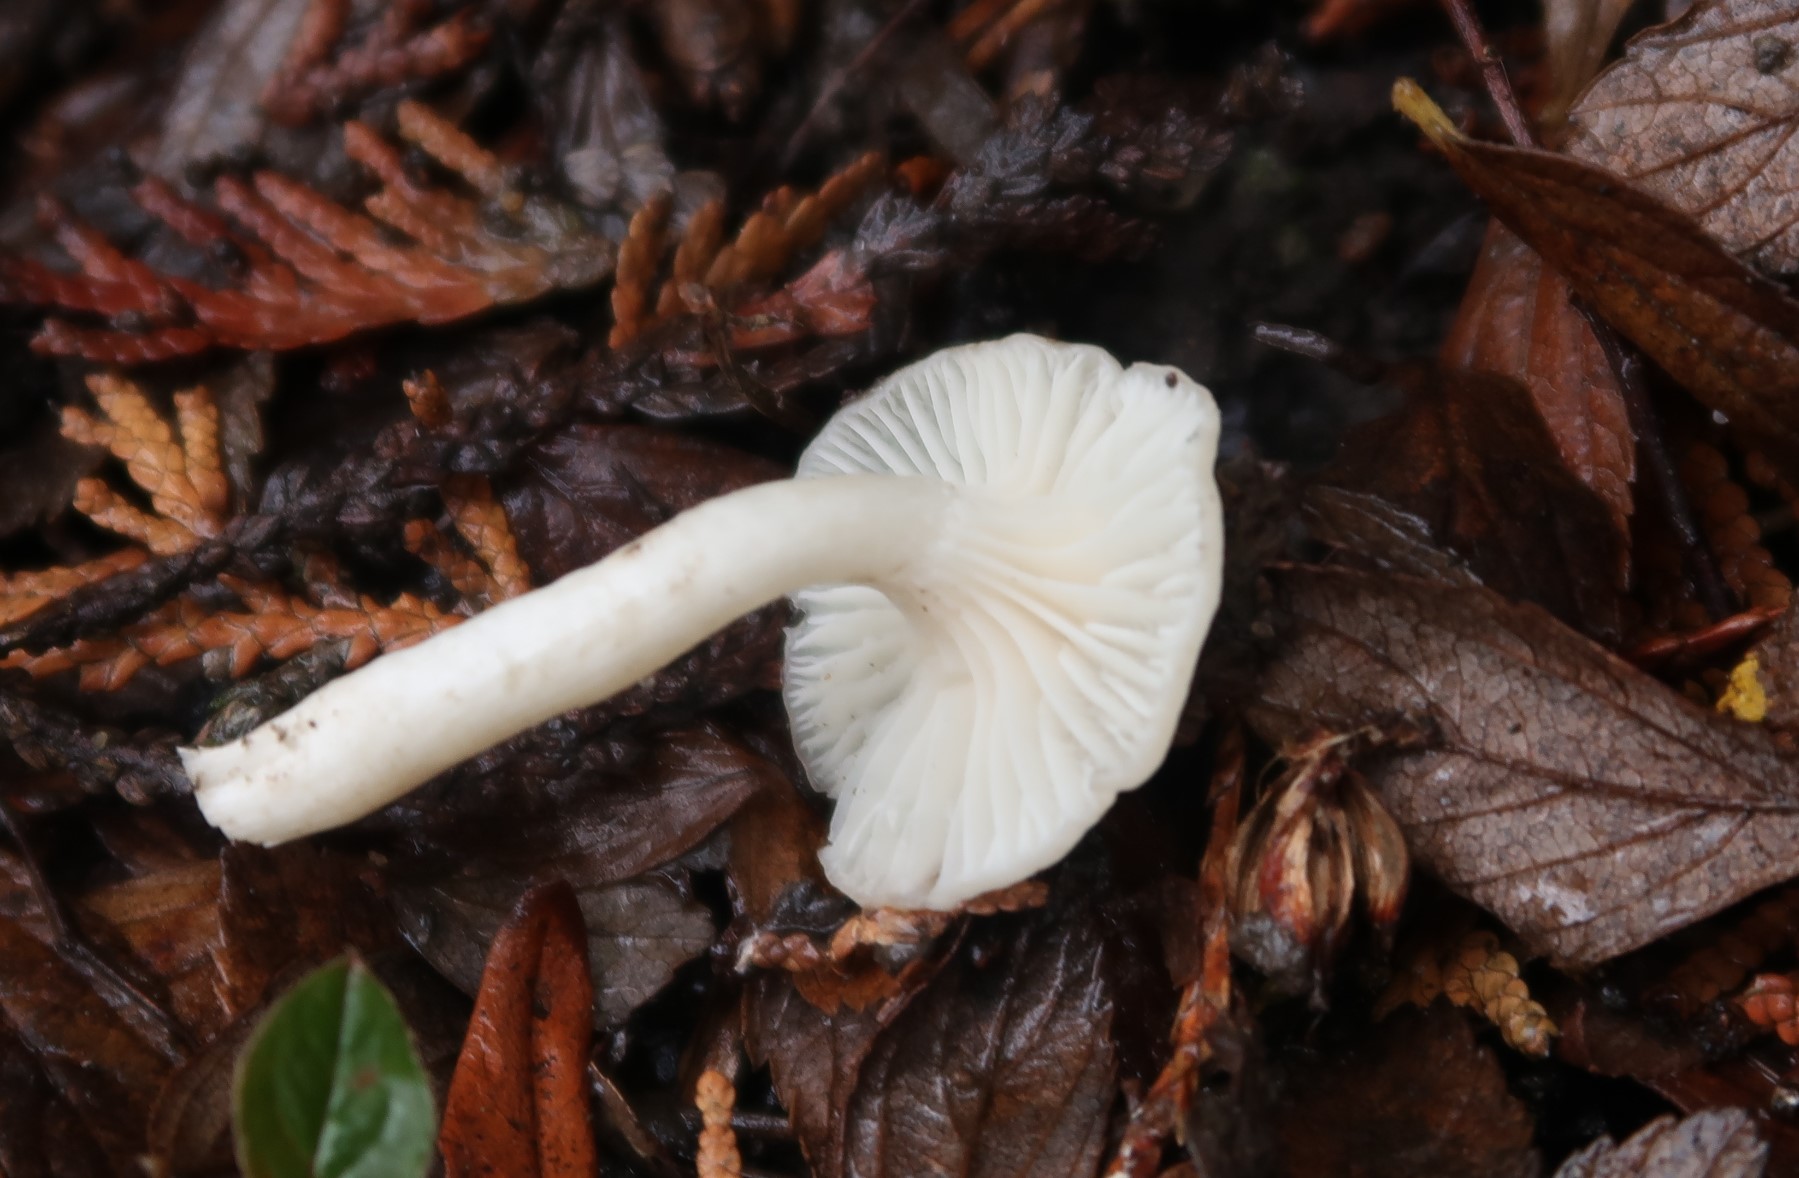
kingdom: Fungi
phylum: Basidiomycota
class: Agaricomycetes
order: Agaricales
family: Hygrophoraceae
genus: Cuphophyllus
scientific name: Cuphophyllus virgineus
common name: snehvid vokshat
